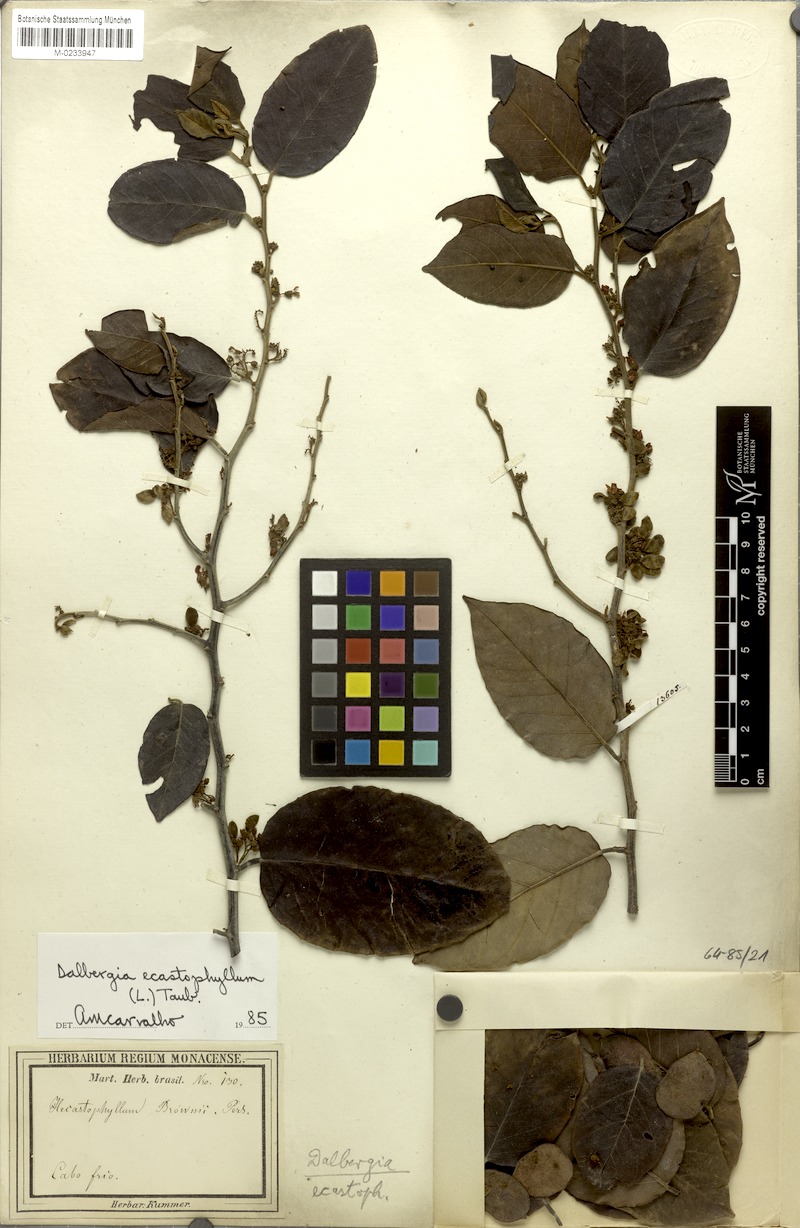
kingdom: Plantae
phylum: Tracheophyta
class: Magnoliopsida
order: Fabales
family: Fabaceae
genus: Dalbergia
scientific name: Dalbergia ecastaphyllum
